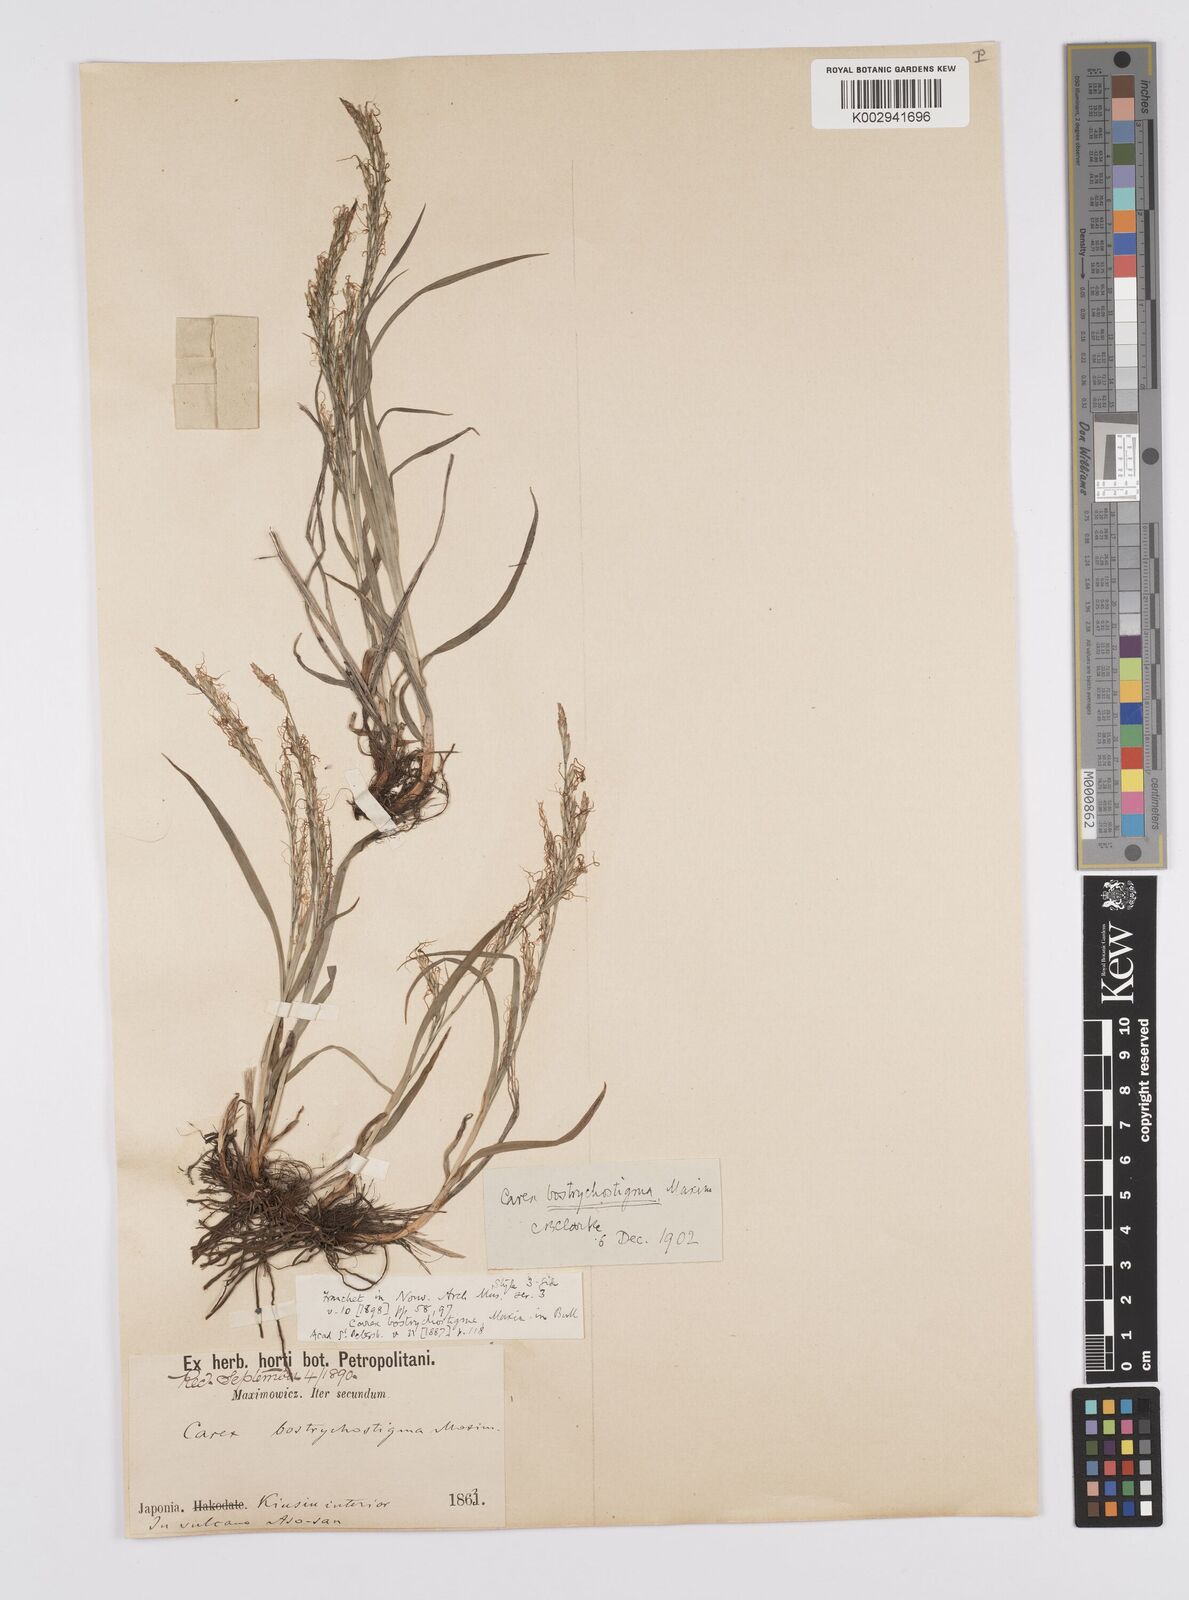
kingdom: Plantae
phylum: Tracheophyta
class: Liliopsida
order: Poales
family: Cyperaceae
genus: Carex
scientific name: Carex bostrychostigma
